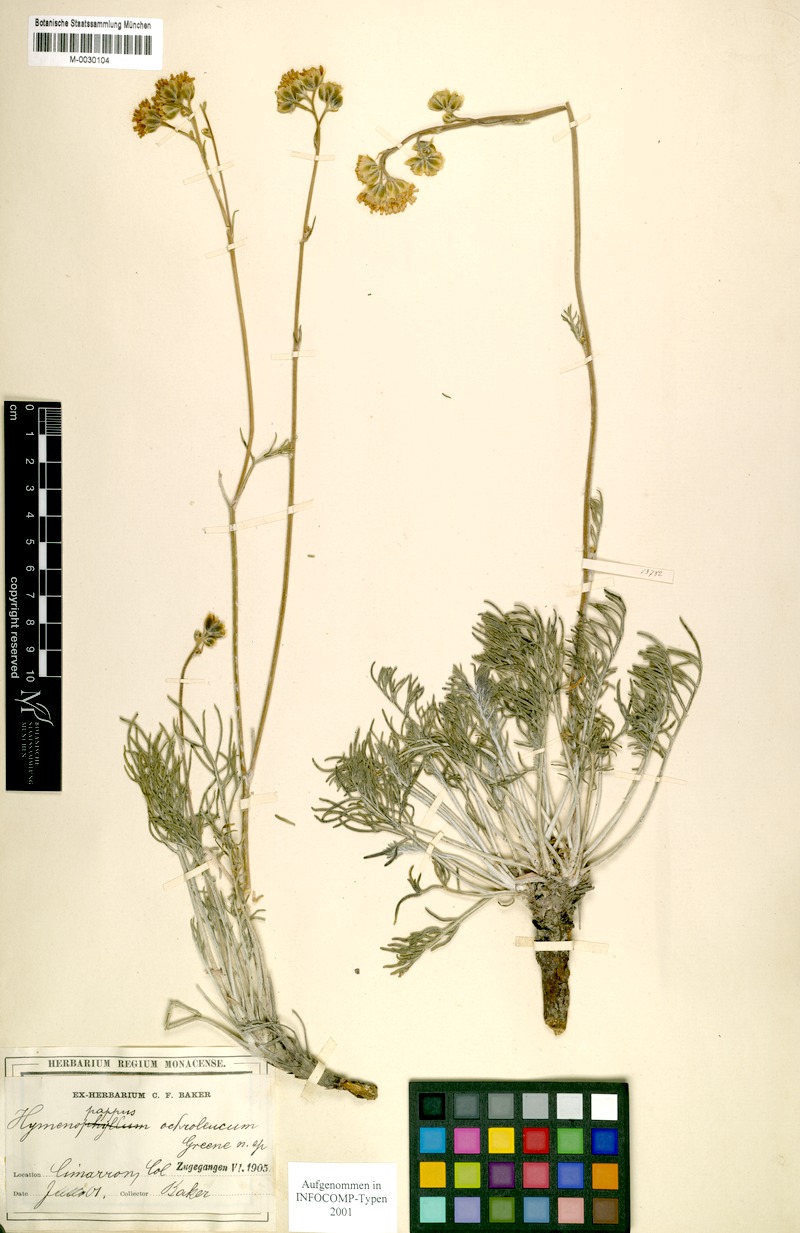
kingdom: Plantae
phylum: Tracheophyta
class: Magnoliopsida
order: Asterales
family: Asteraceae
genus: Hymenopappus
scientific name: Hymenopappus ochroleucus
